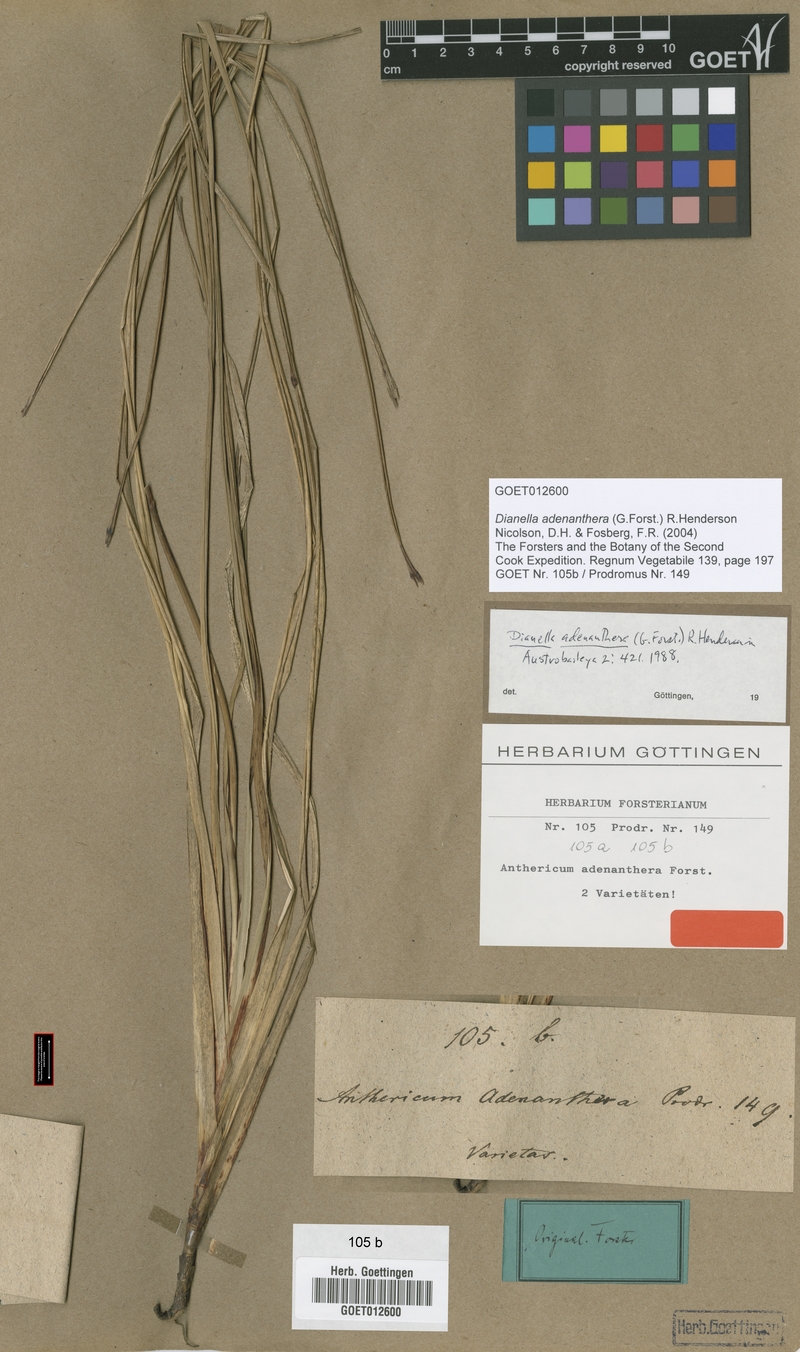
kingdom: Plantae
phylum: Tracheophyta
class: Liliopsida
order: Asparagales
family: Asphodelaceae
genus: Dianella
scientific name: Dianella adenanthera
